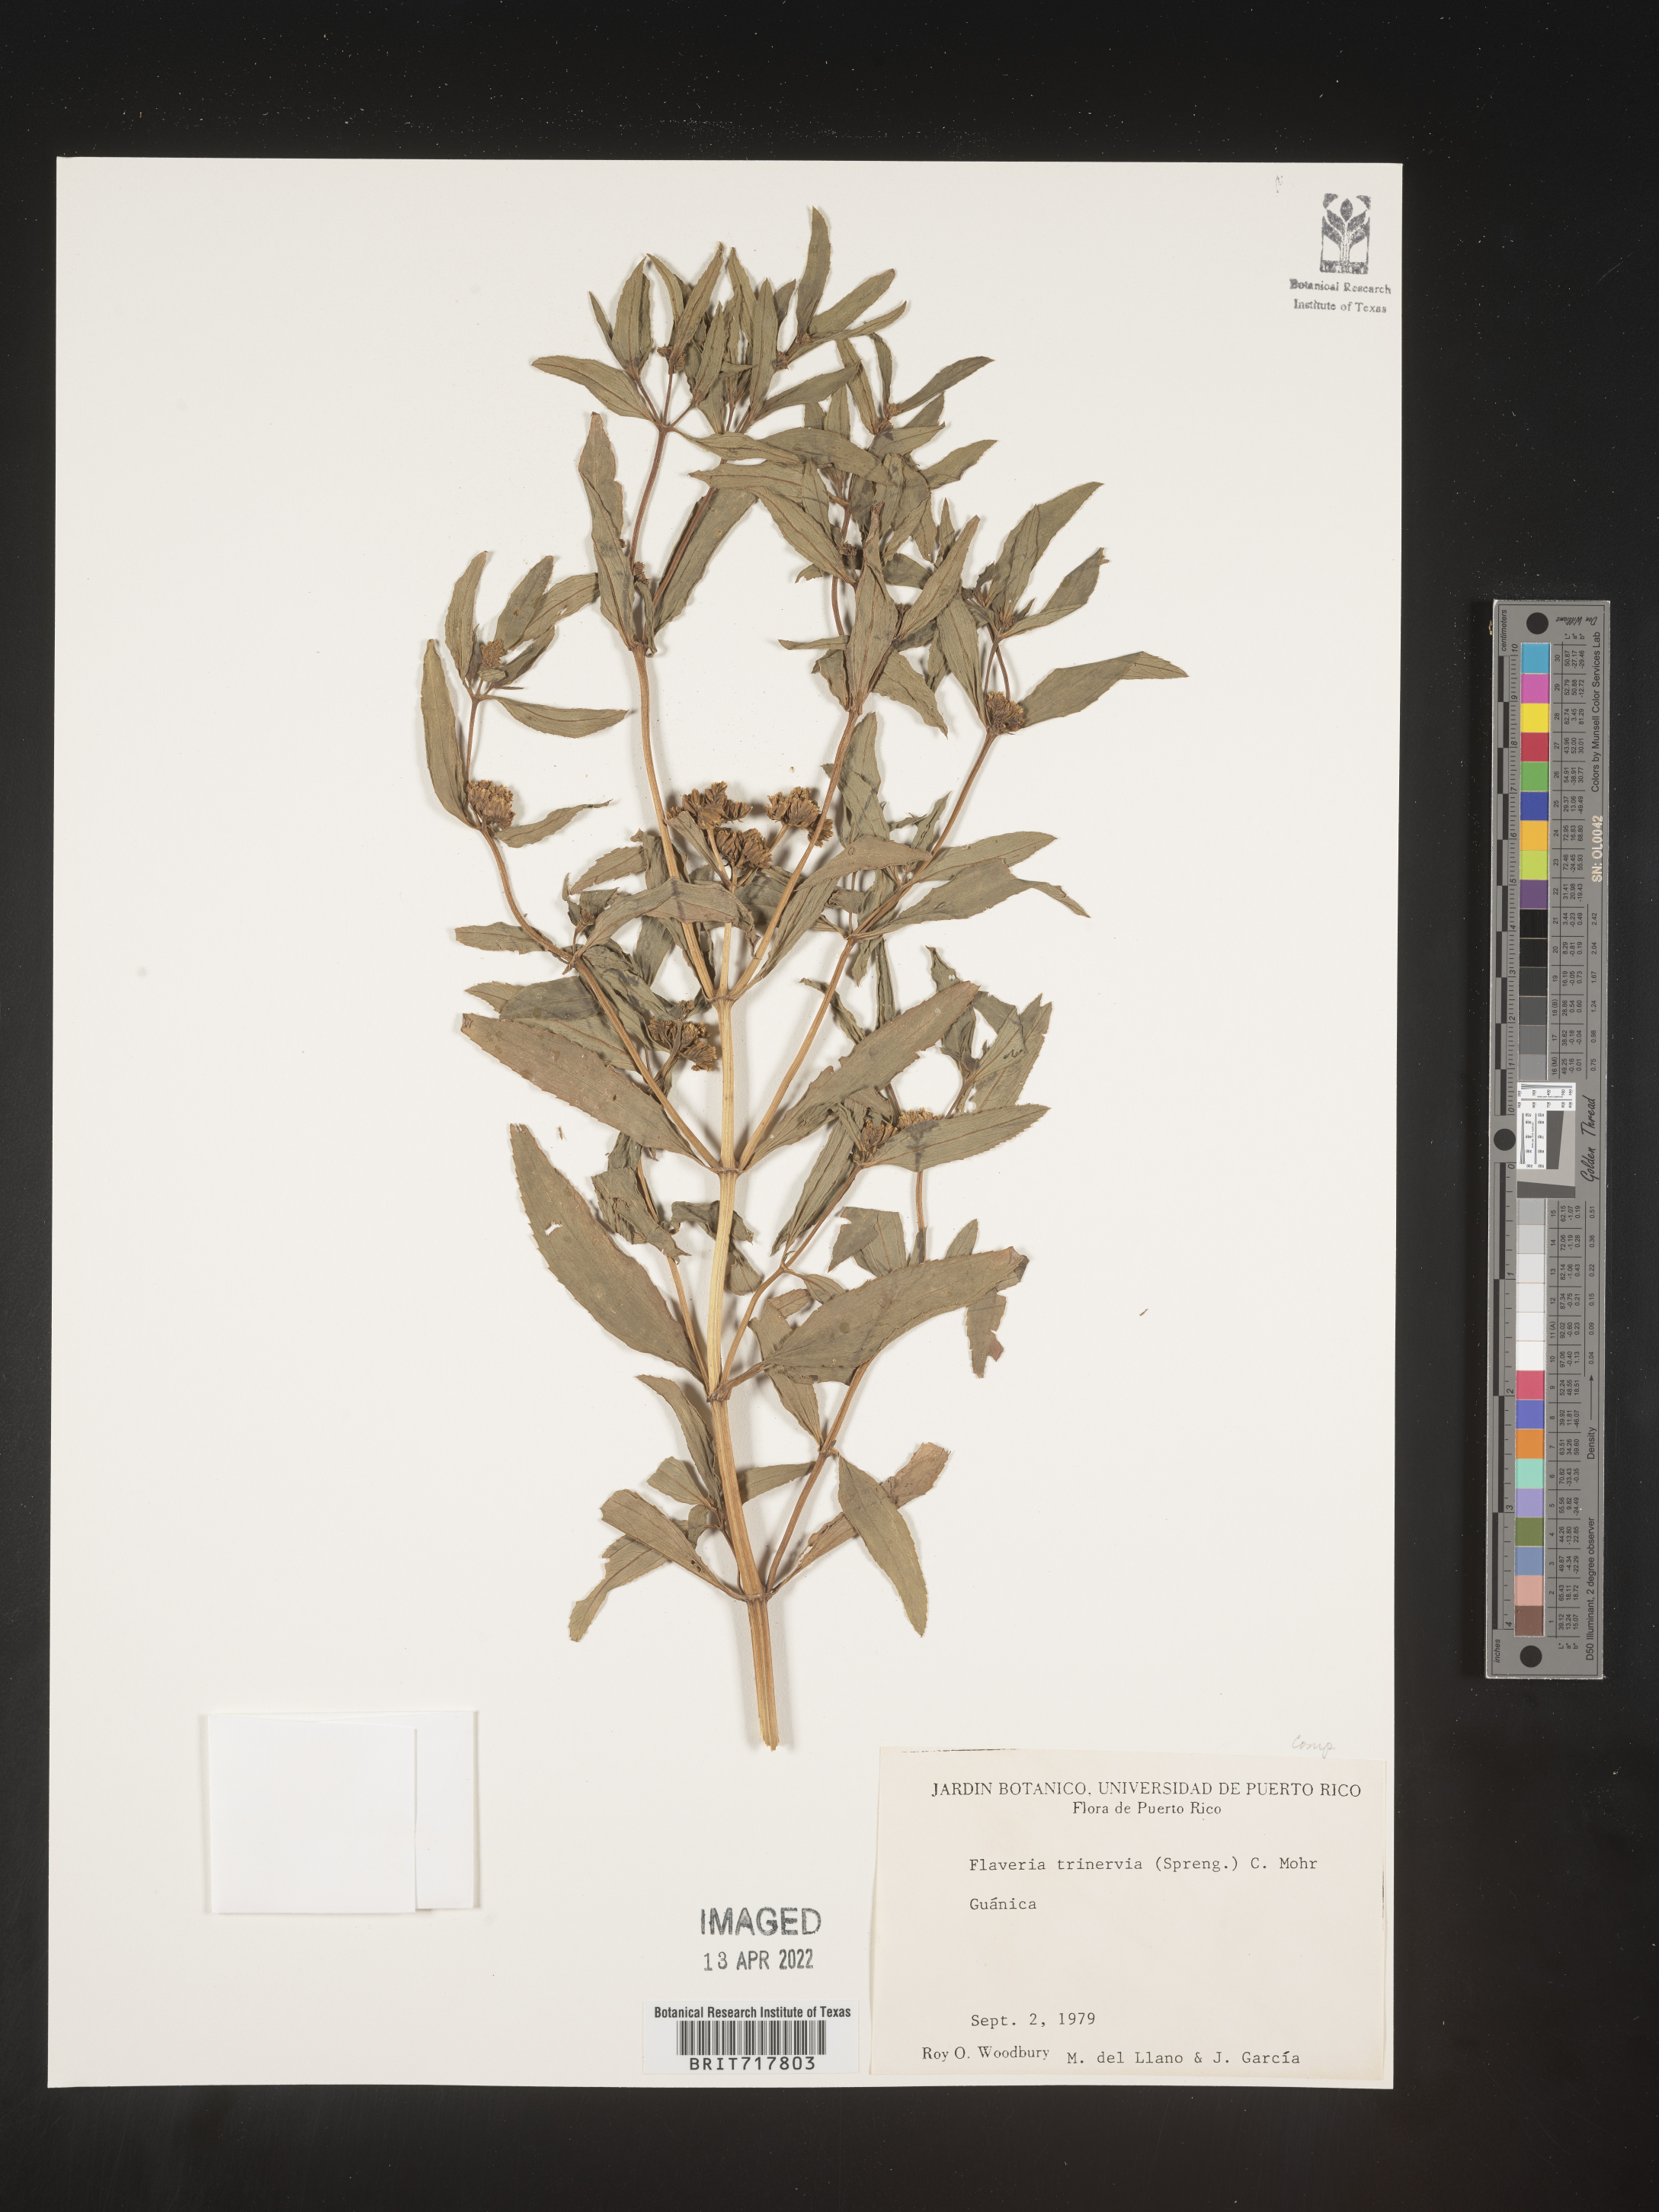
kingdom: Plantae
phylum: Tracheophyta
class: Magnoliopsida
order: Asterales
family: Asteraceae
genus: Flaveria
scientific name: Flaveria
